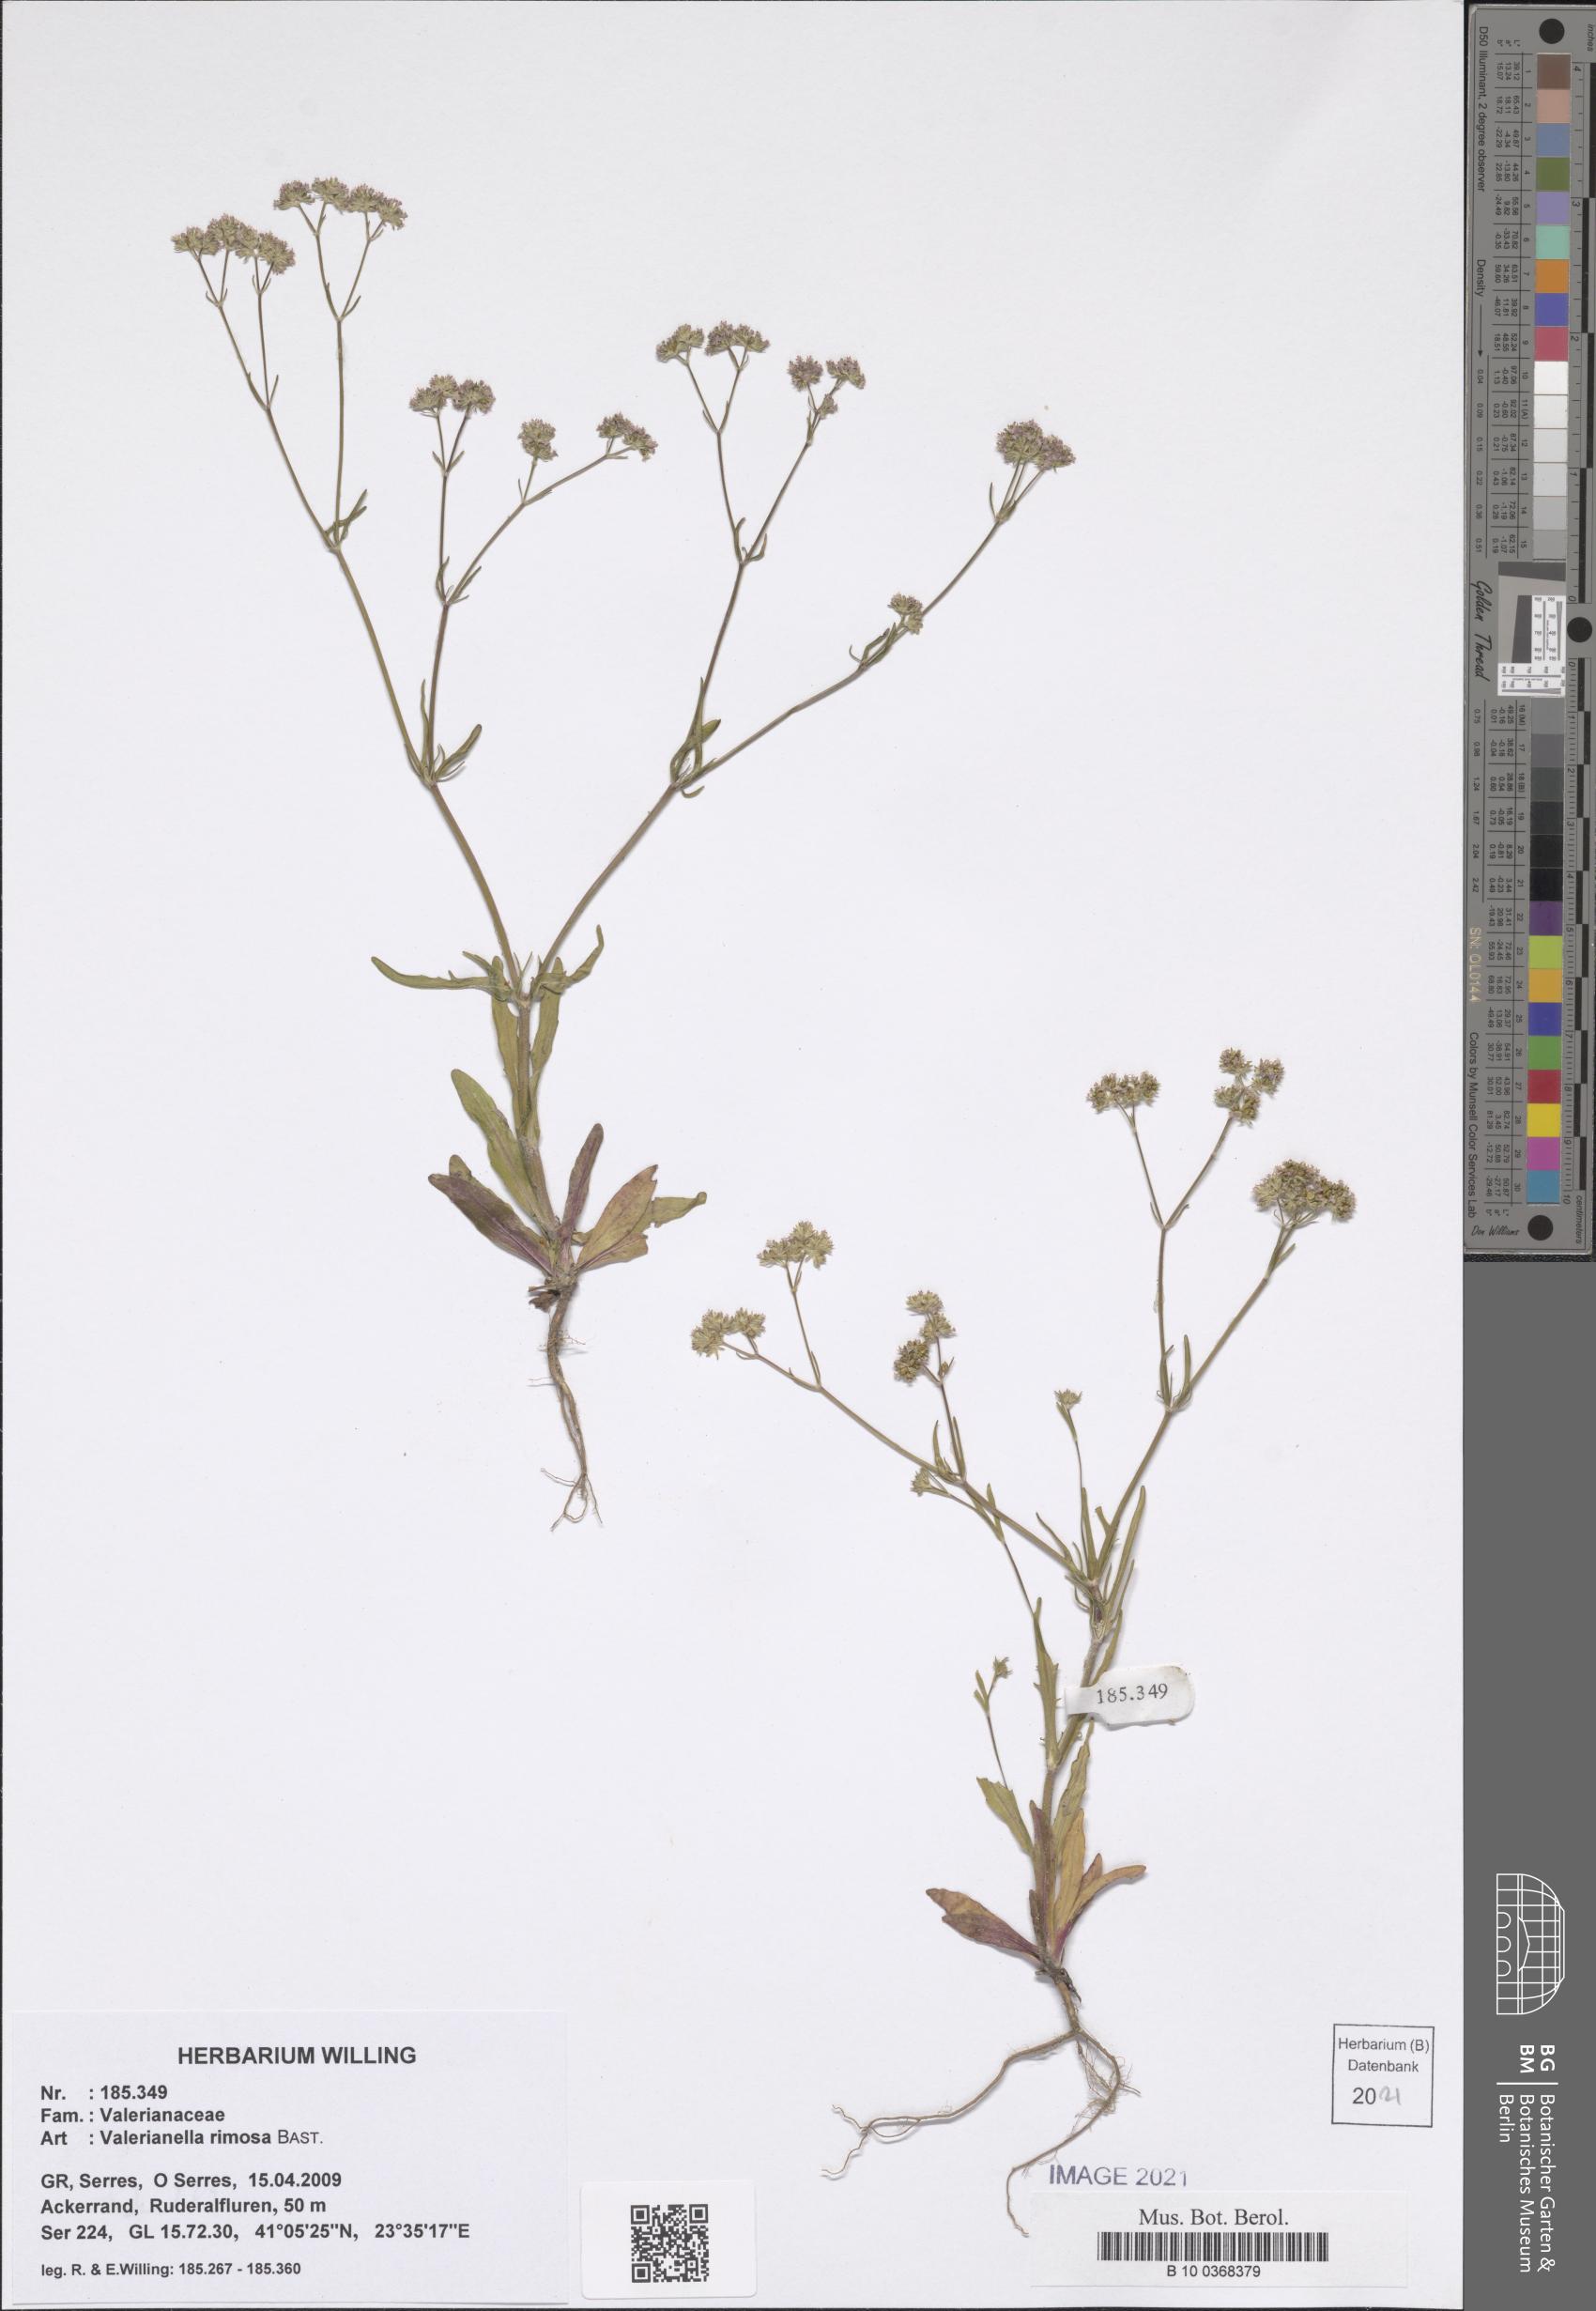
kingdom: Plantae
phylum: Tracheophyta
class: Magnoliopsida
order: Dipsacales
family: Caprifoliaceae
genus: Valerianella
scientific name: Valerianella rimosa
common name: Broad-fruited cornsalad
